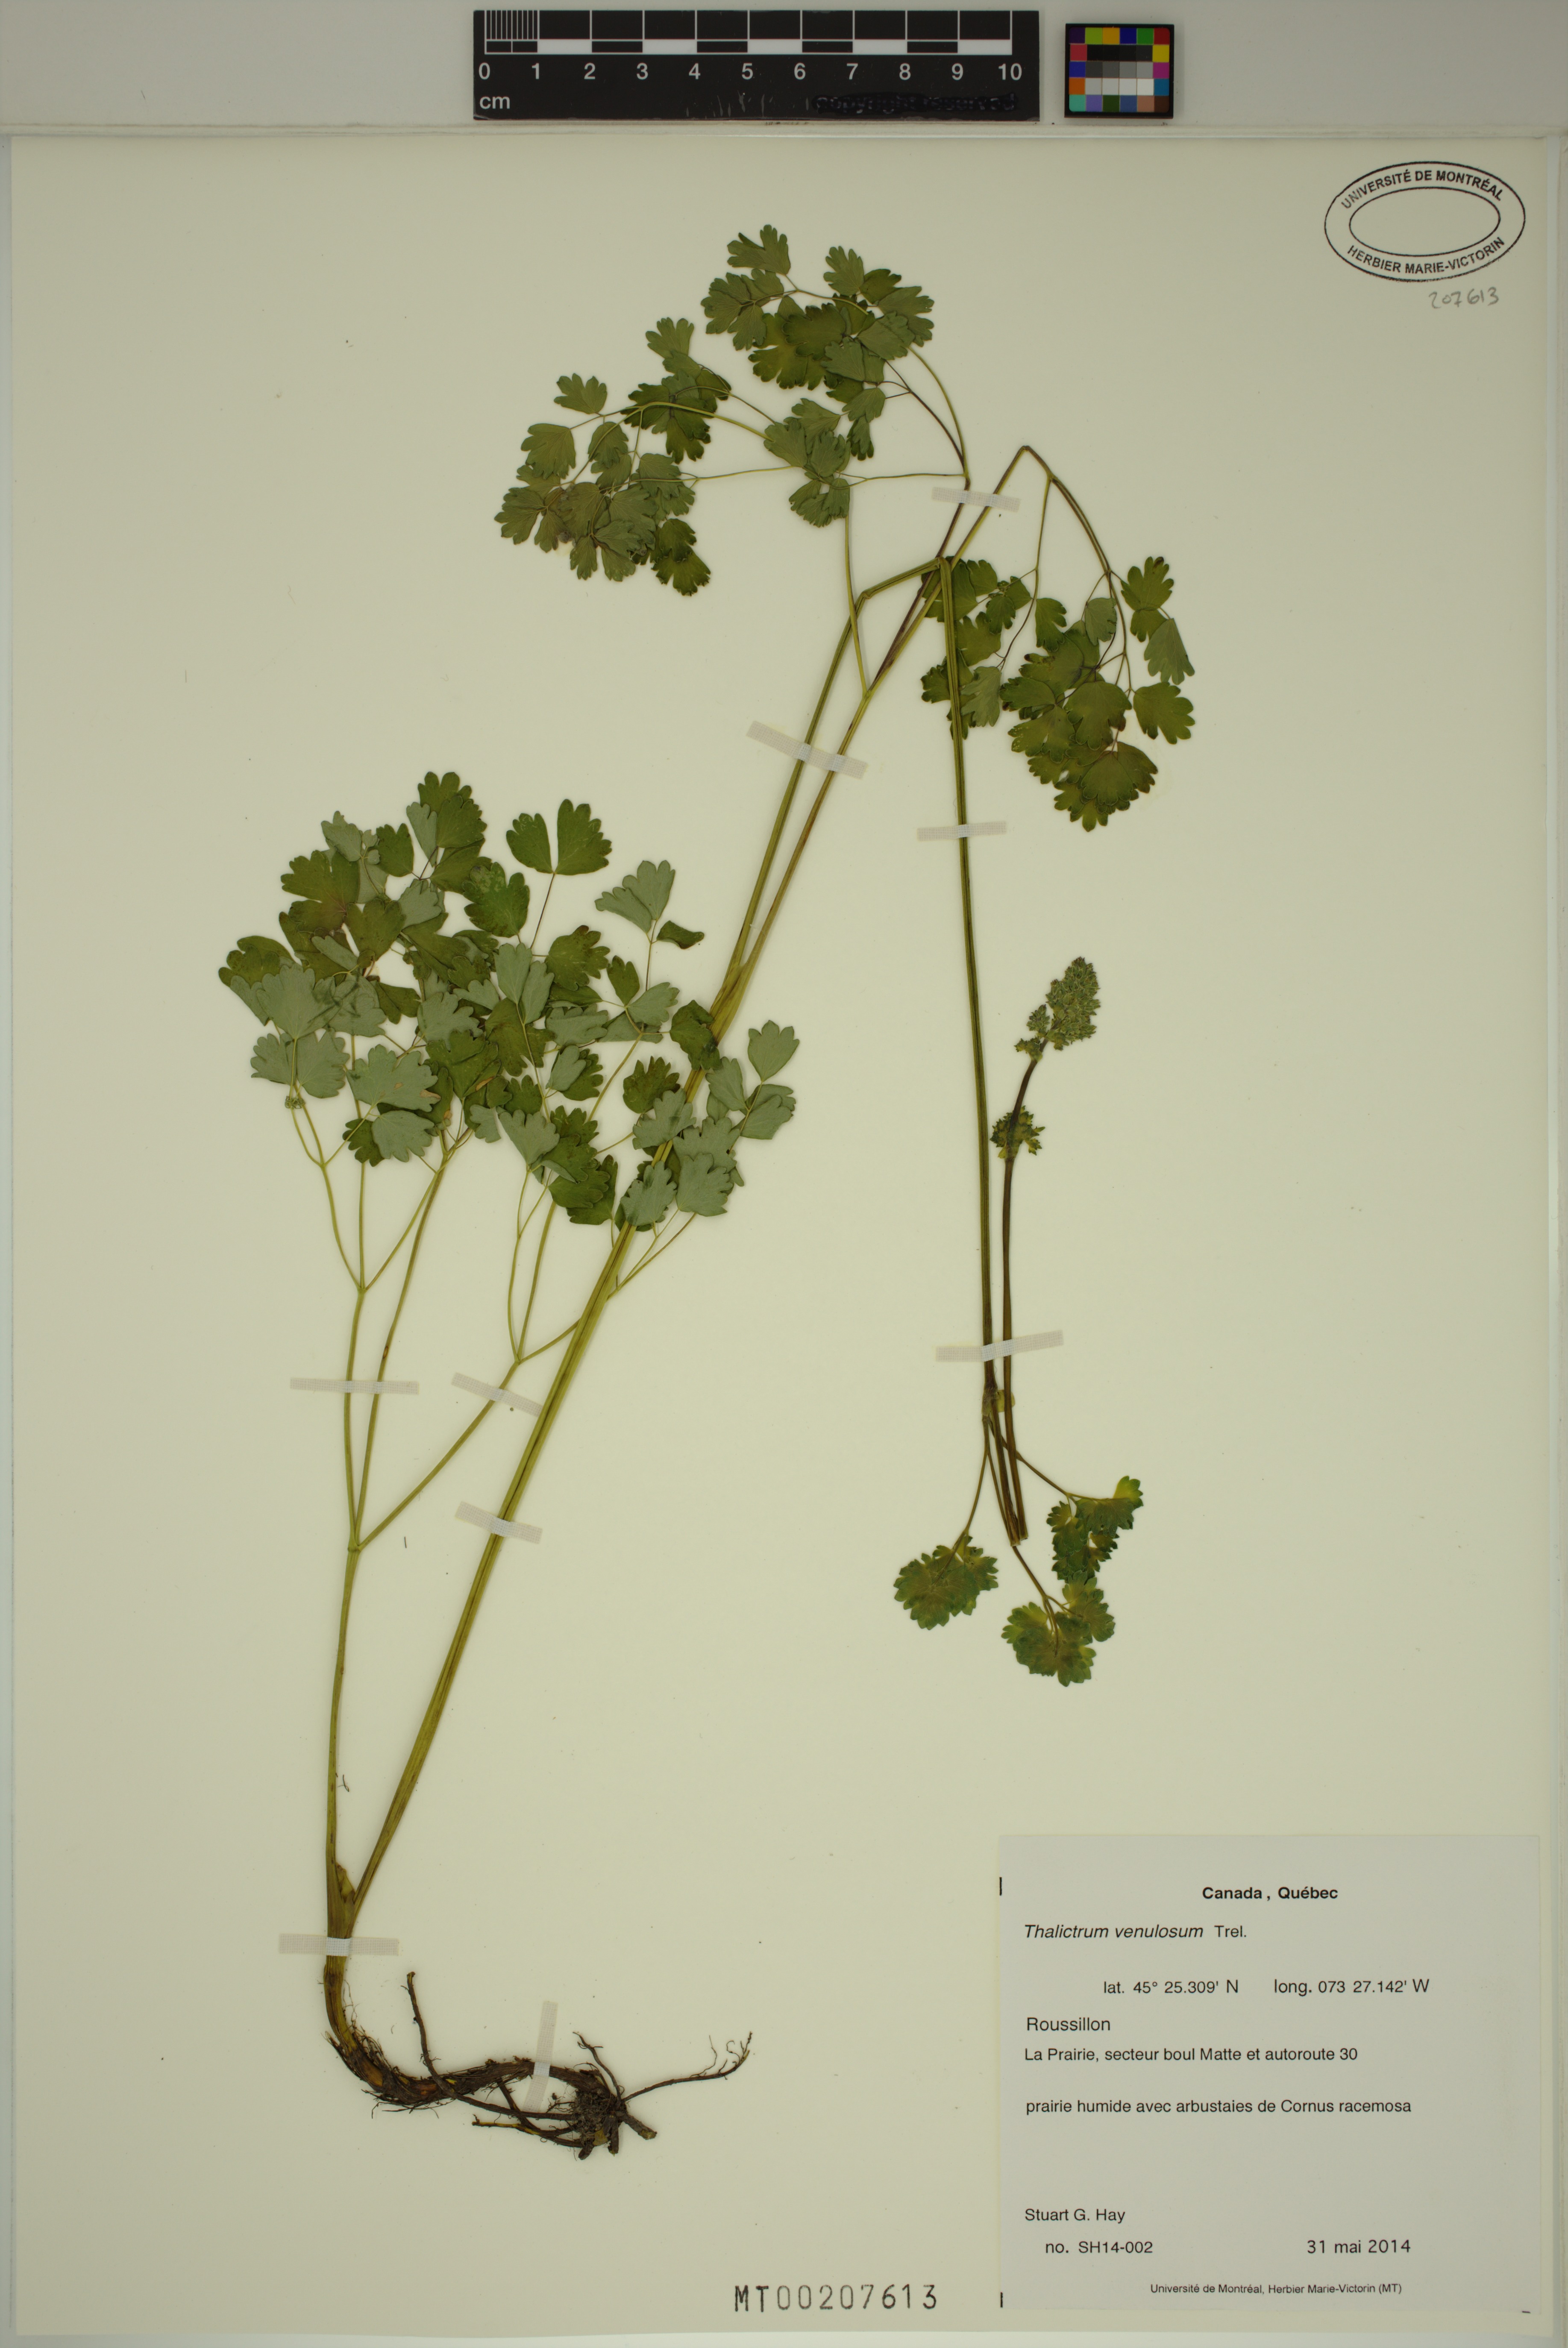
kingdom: Plantae
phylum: Tracheophyta
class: Magnoliopsida
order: Ranunculales
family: Ranunculaceae
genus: Thalictrum
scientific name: Thalictrum venulosum
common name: Early meadow-rue
